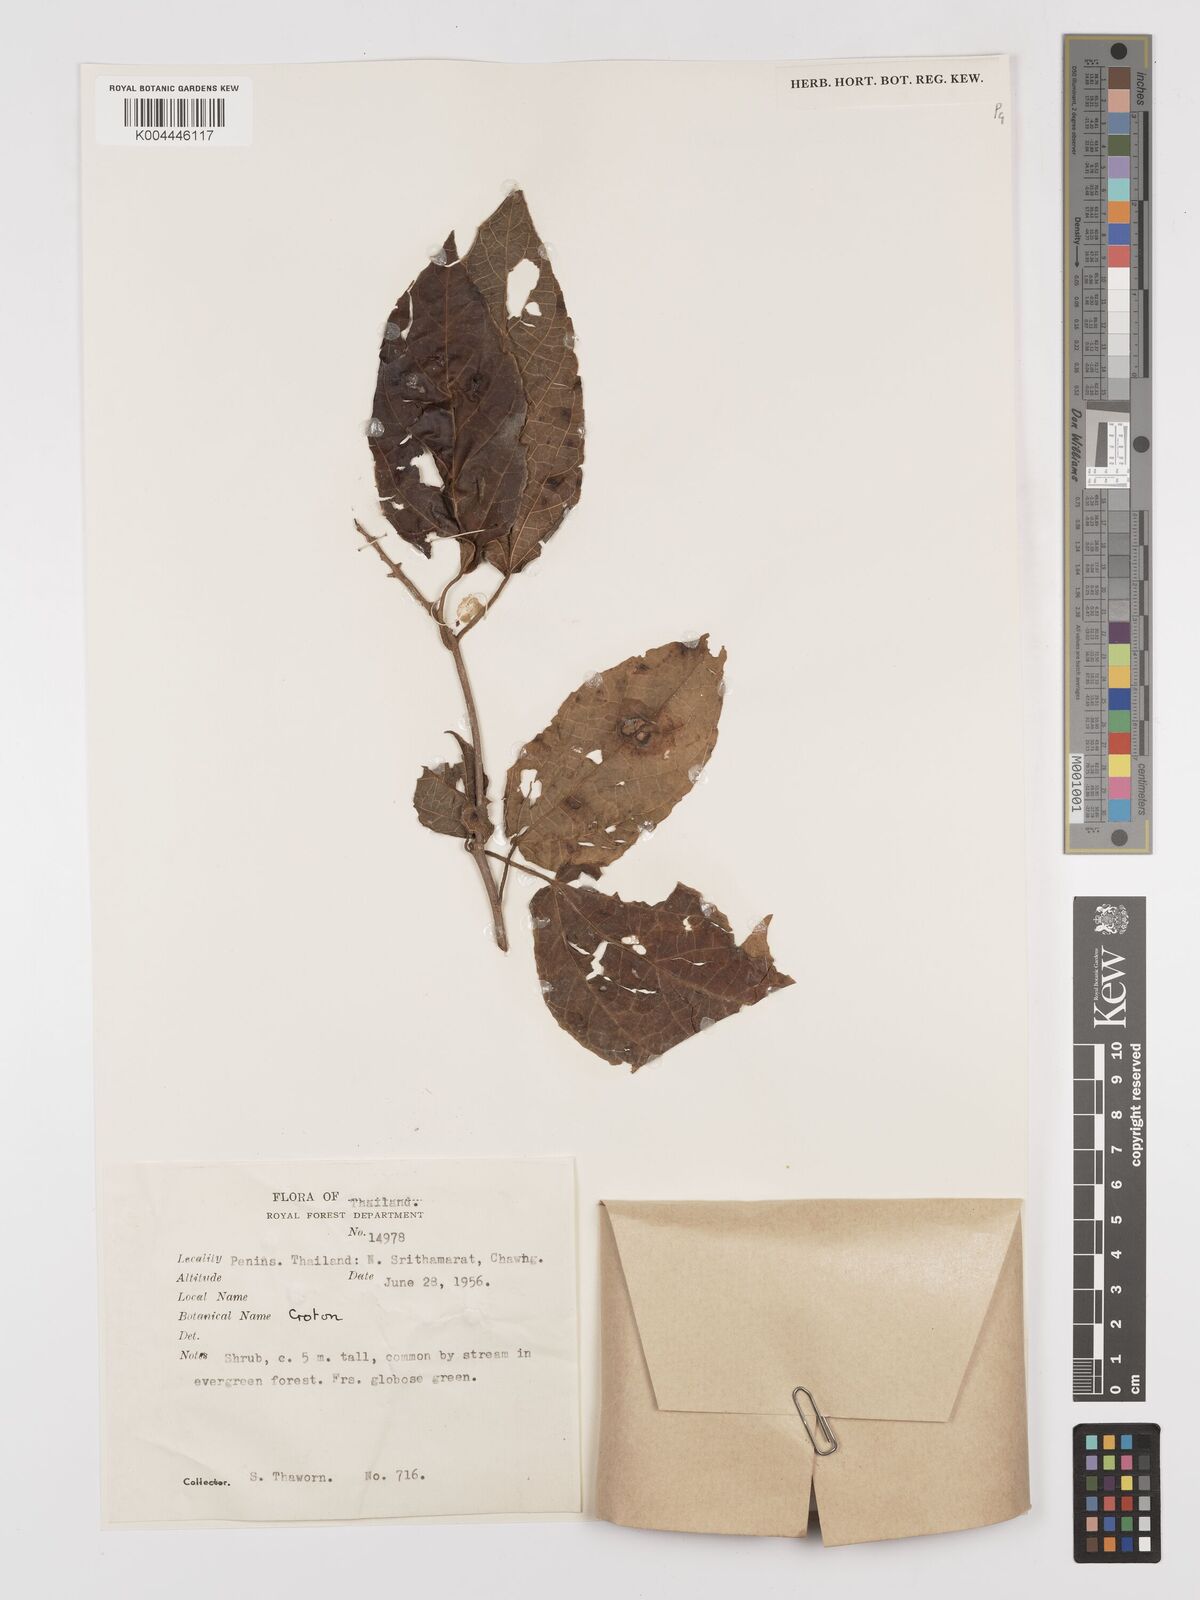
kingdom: Plantae
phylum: Tracheophyta
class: Magnoliopsida
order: Malpighiales
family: Euphorbiaceae
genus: Croton
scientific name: Croton caudatus
